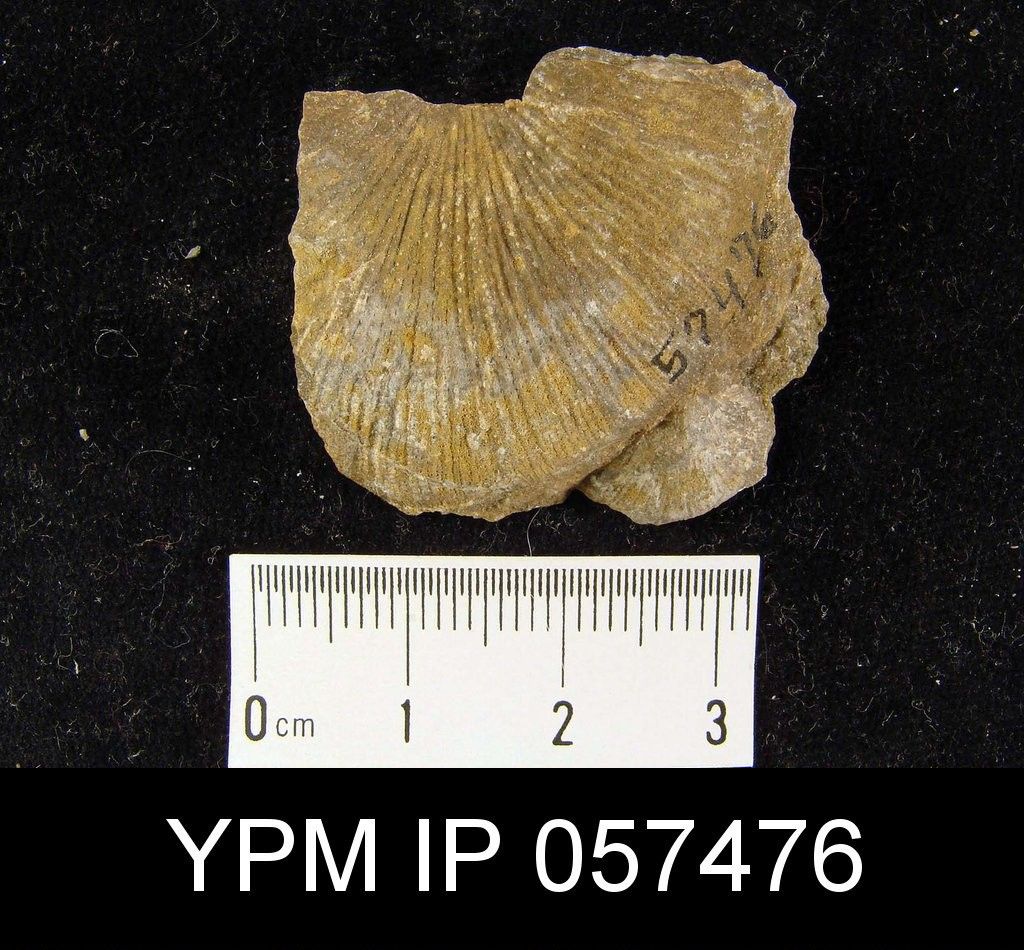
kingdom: Animalia
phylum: Brachiopoda
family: Stropheodontidae
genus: Strophonella
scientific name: Strophonella Strophomena punctulifera
